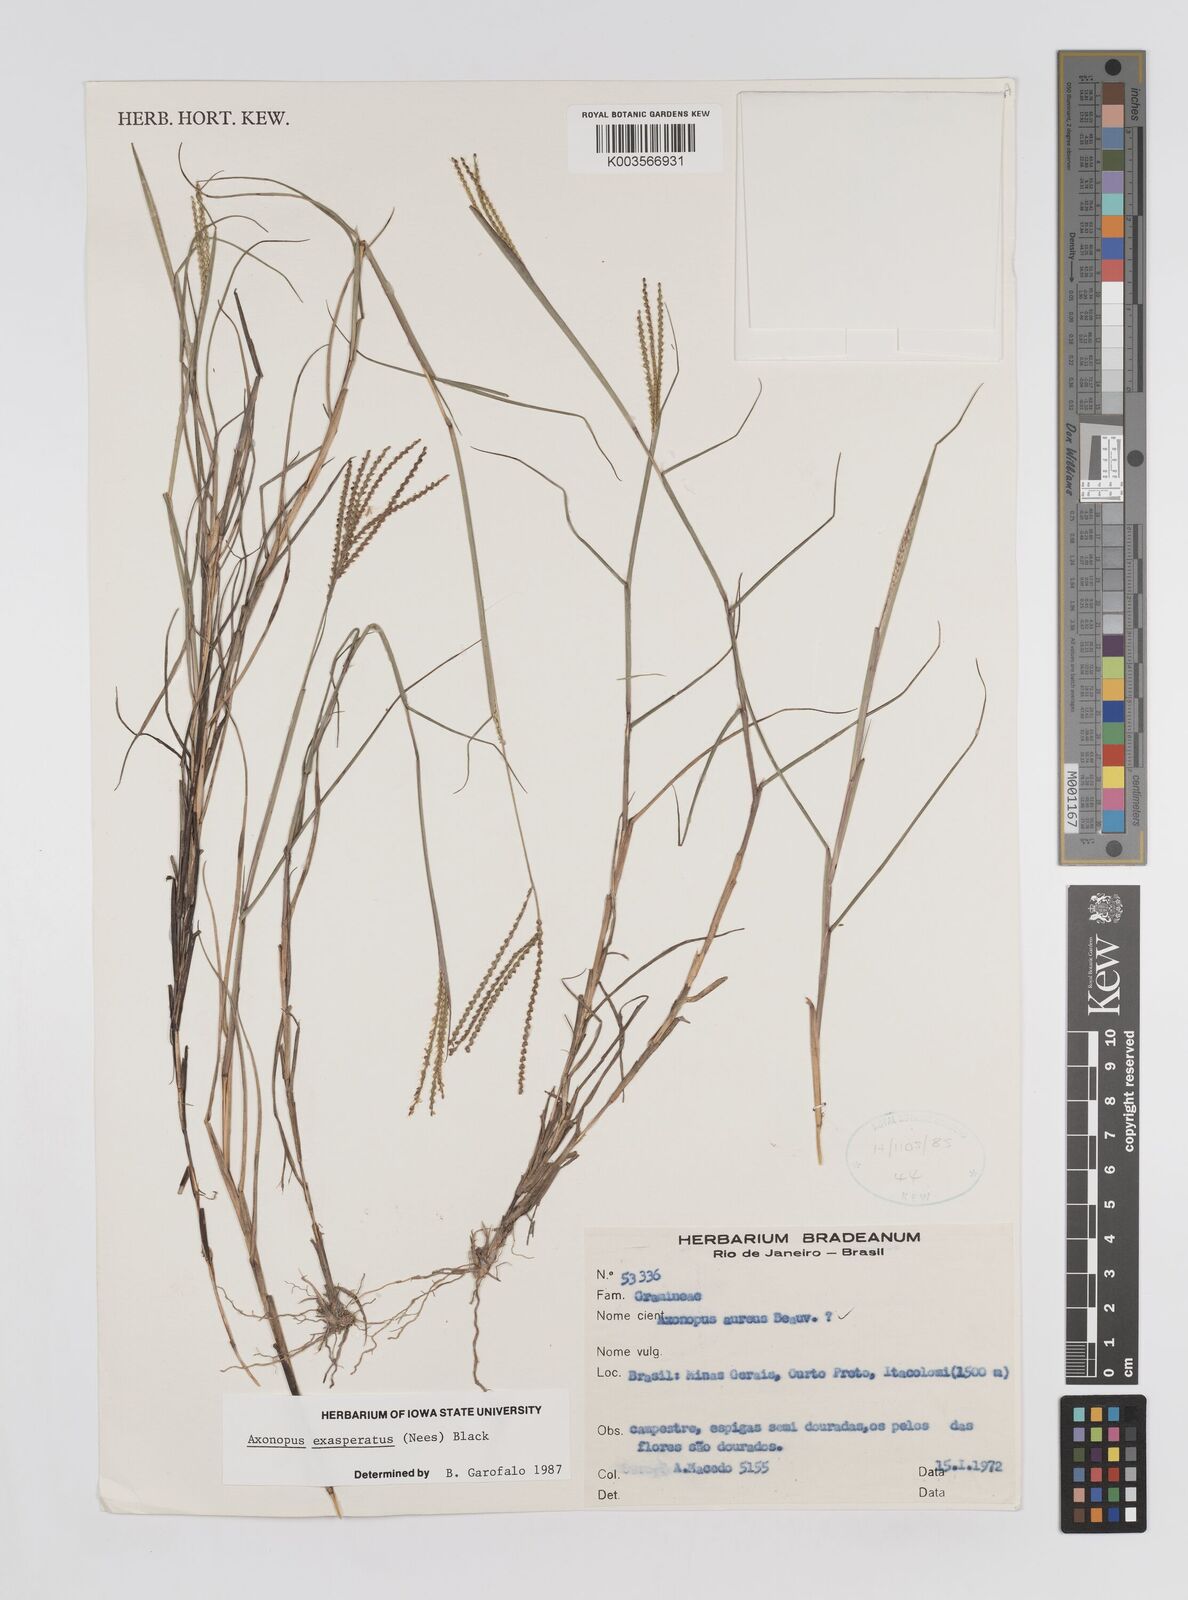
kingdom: Plantae
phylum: Tracheophyta
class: Liliopsida
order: Poales
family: Poaceae
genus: Axonopus
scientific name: Axonopus aureus
